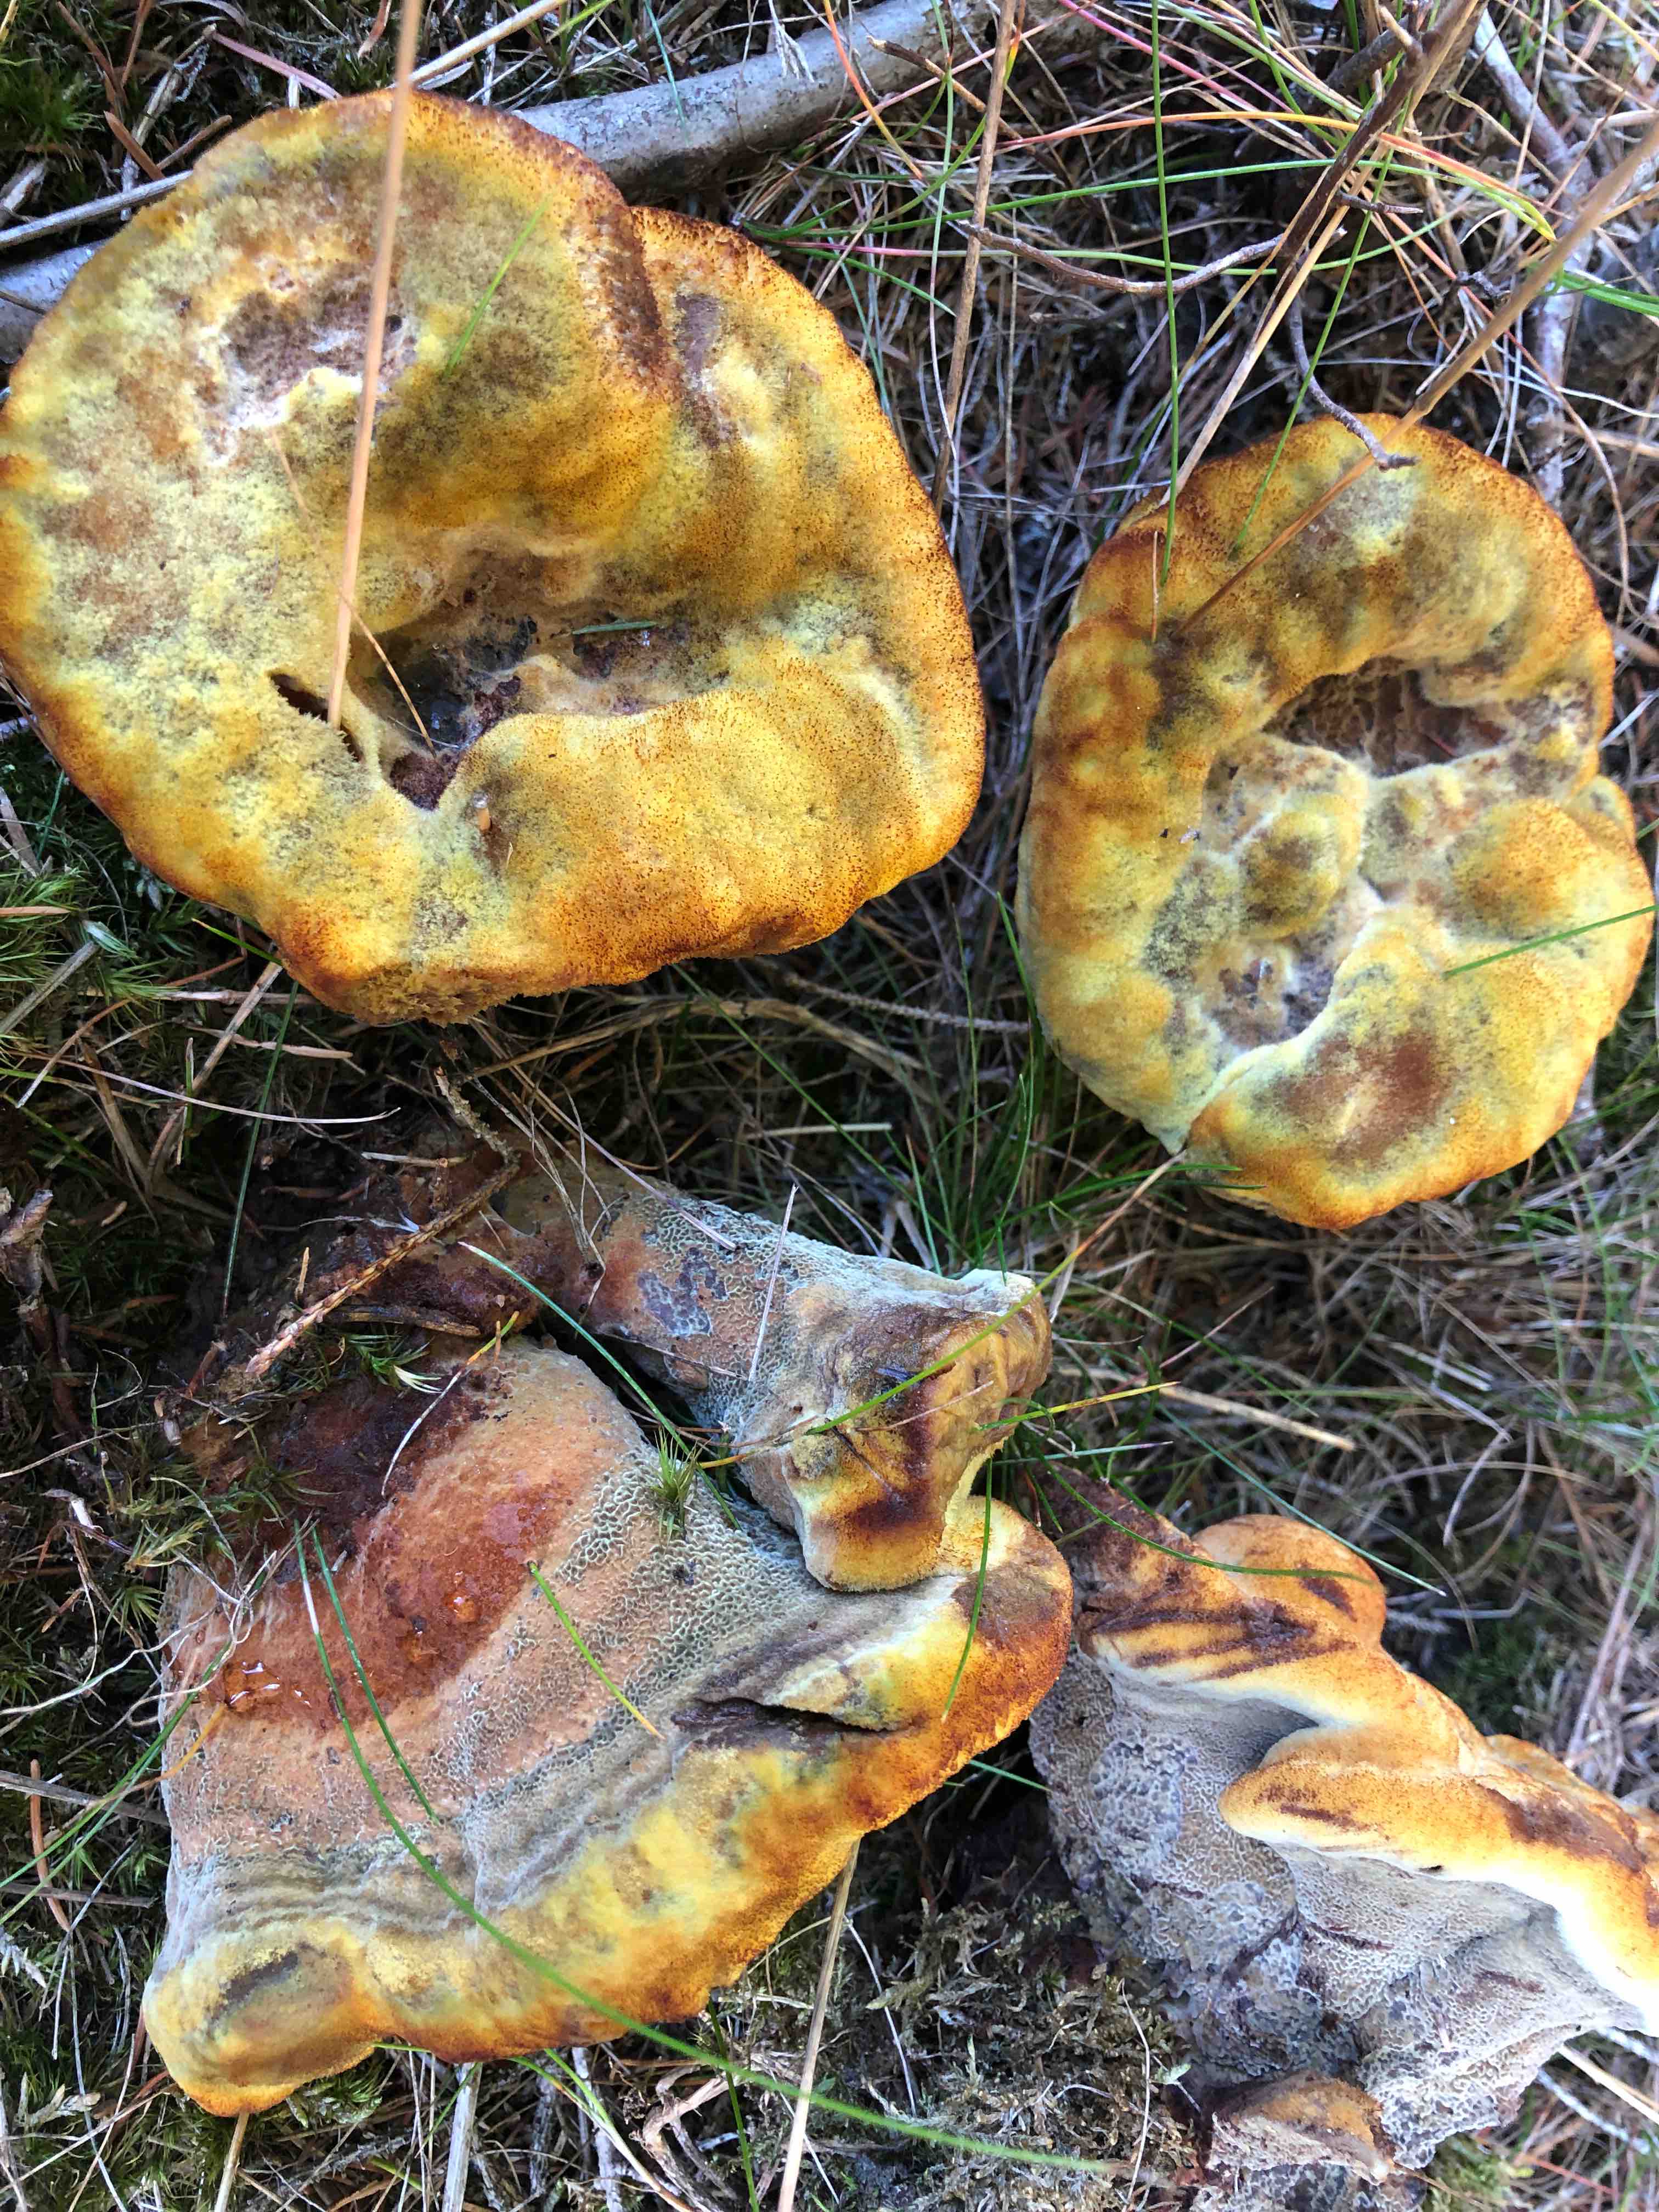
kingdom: Fungi
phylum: Basidiomycota
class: Agaricomycetes
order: Polyporales
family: Laetiporaceae
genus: Phaeolus
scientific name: Phaeolus schweinitzii
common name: brunporesvamp
